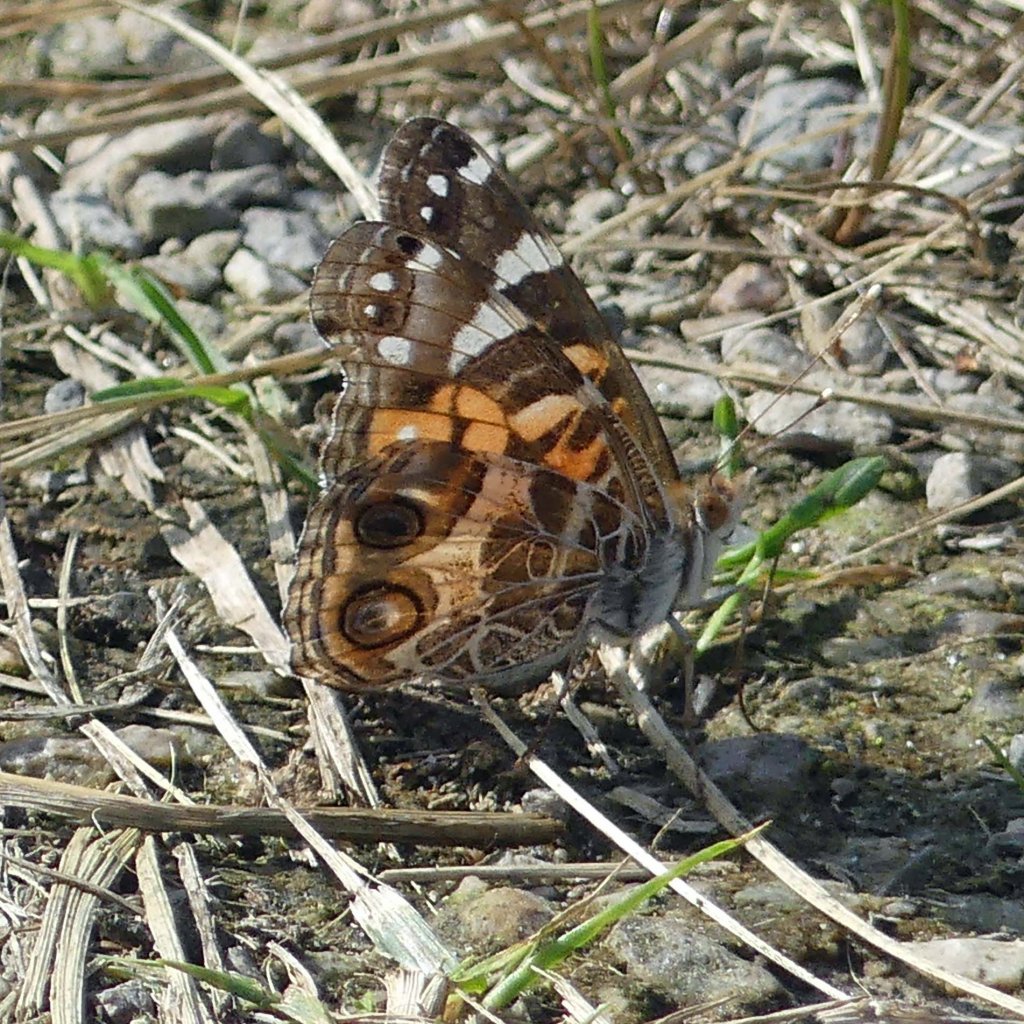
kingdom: Animalia
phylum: Arthropoda
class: Insecta
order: Lepidoptera
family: Nymphalidae
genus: Vanessa
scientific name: Vanessa virginiensis
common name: American Lady
